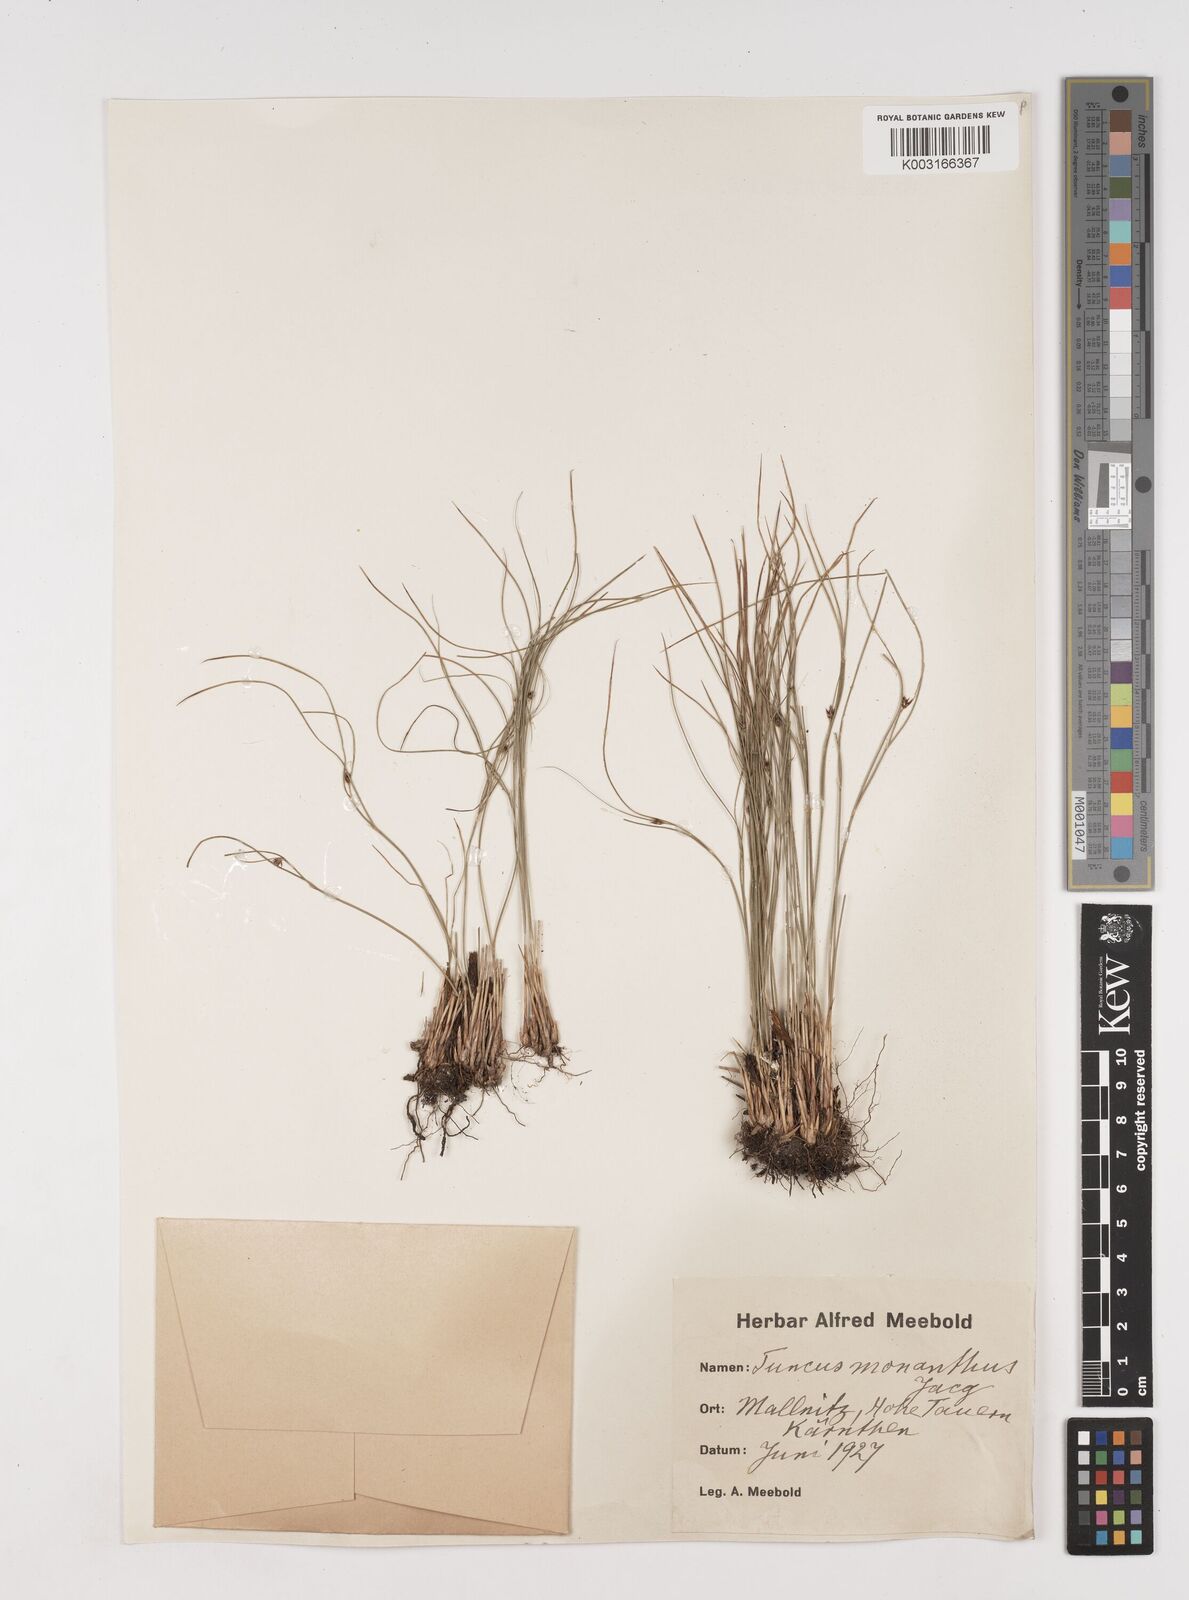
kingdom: Plantae
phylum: Tracheophyta
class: Liliopsida
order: Poales
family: Juncaceae
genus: Oreojuncus
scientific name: Oreojuncus trifidus
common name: Highland rush
